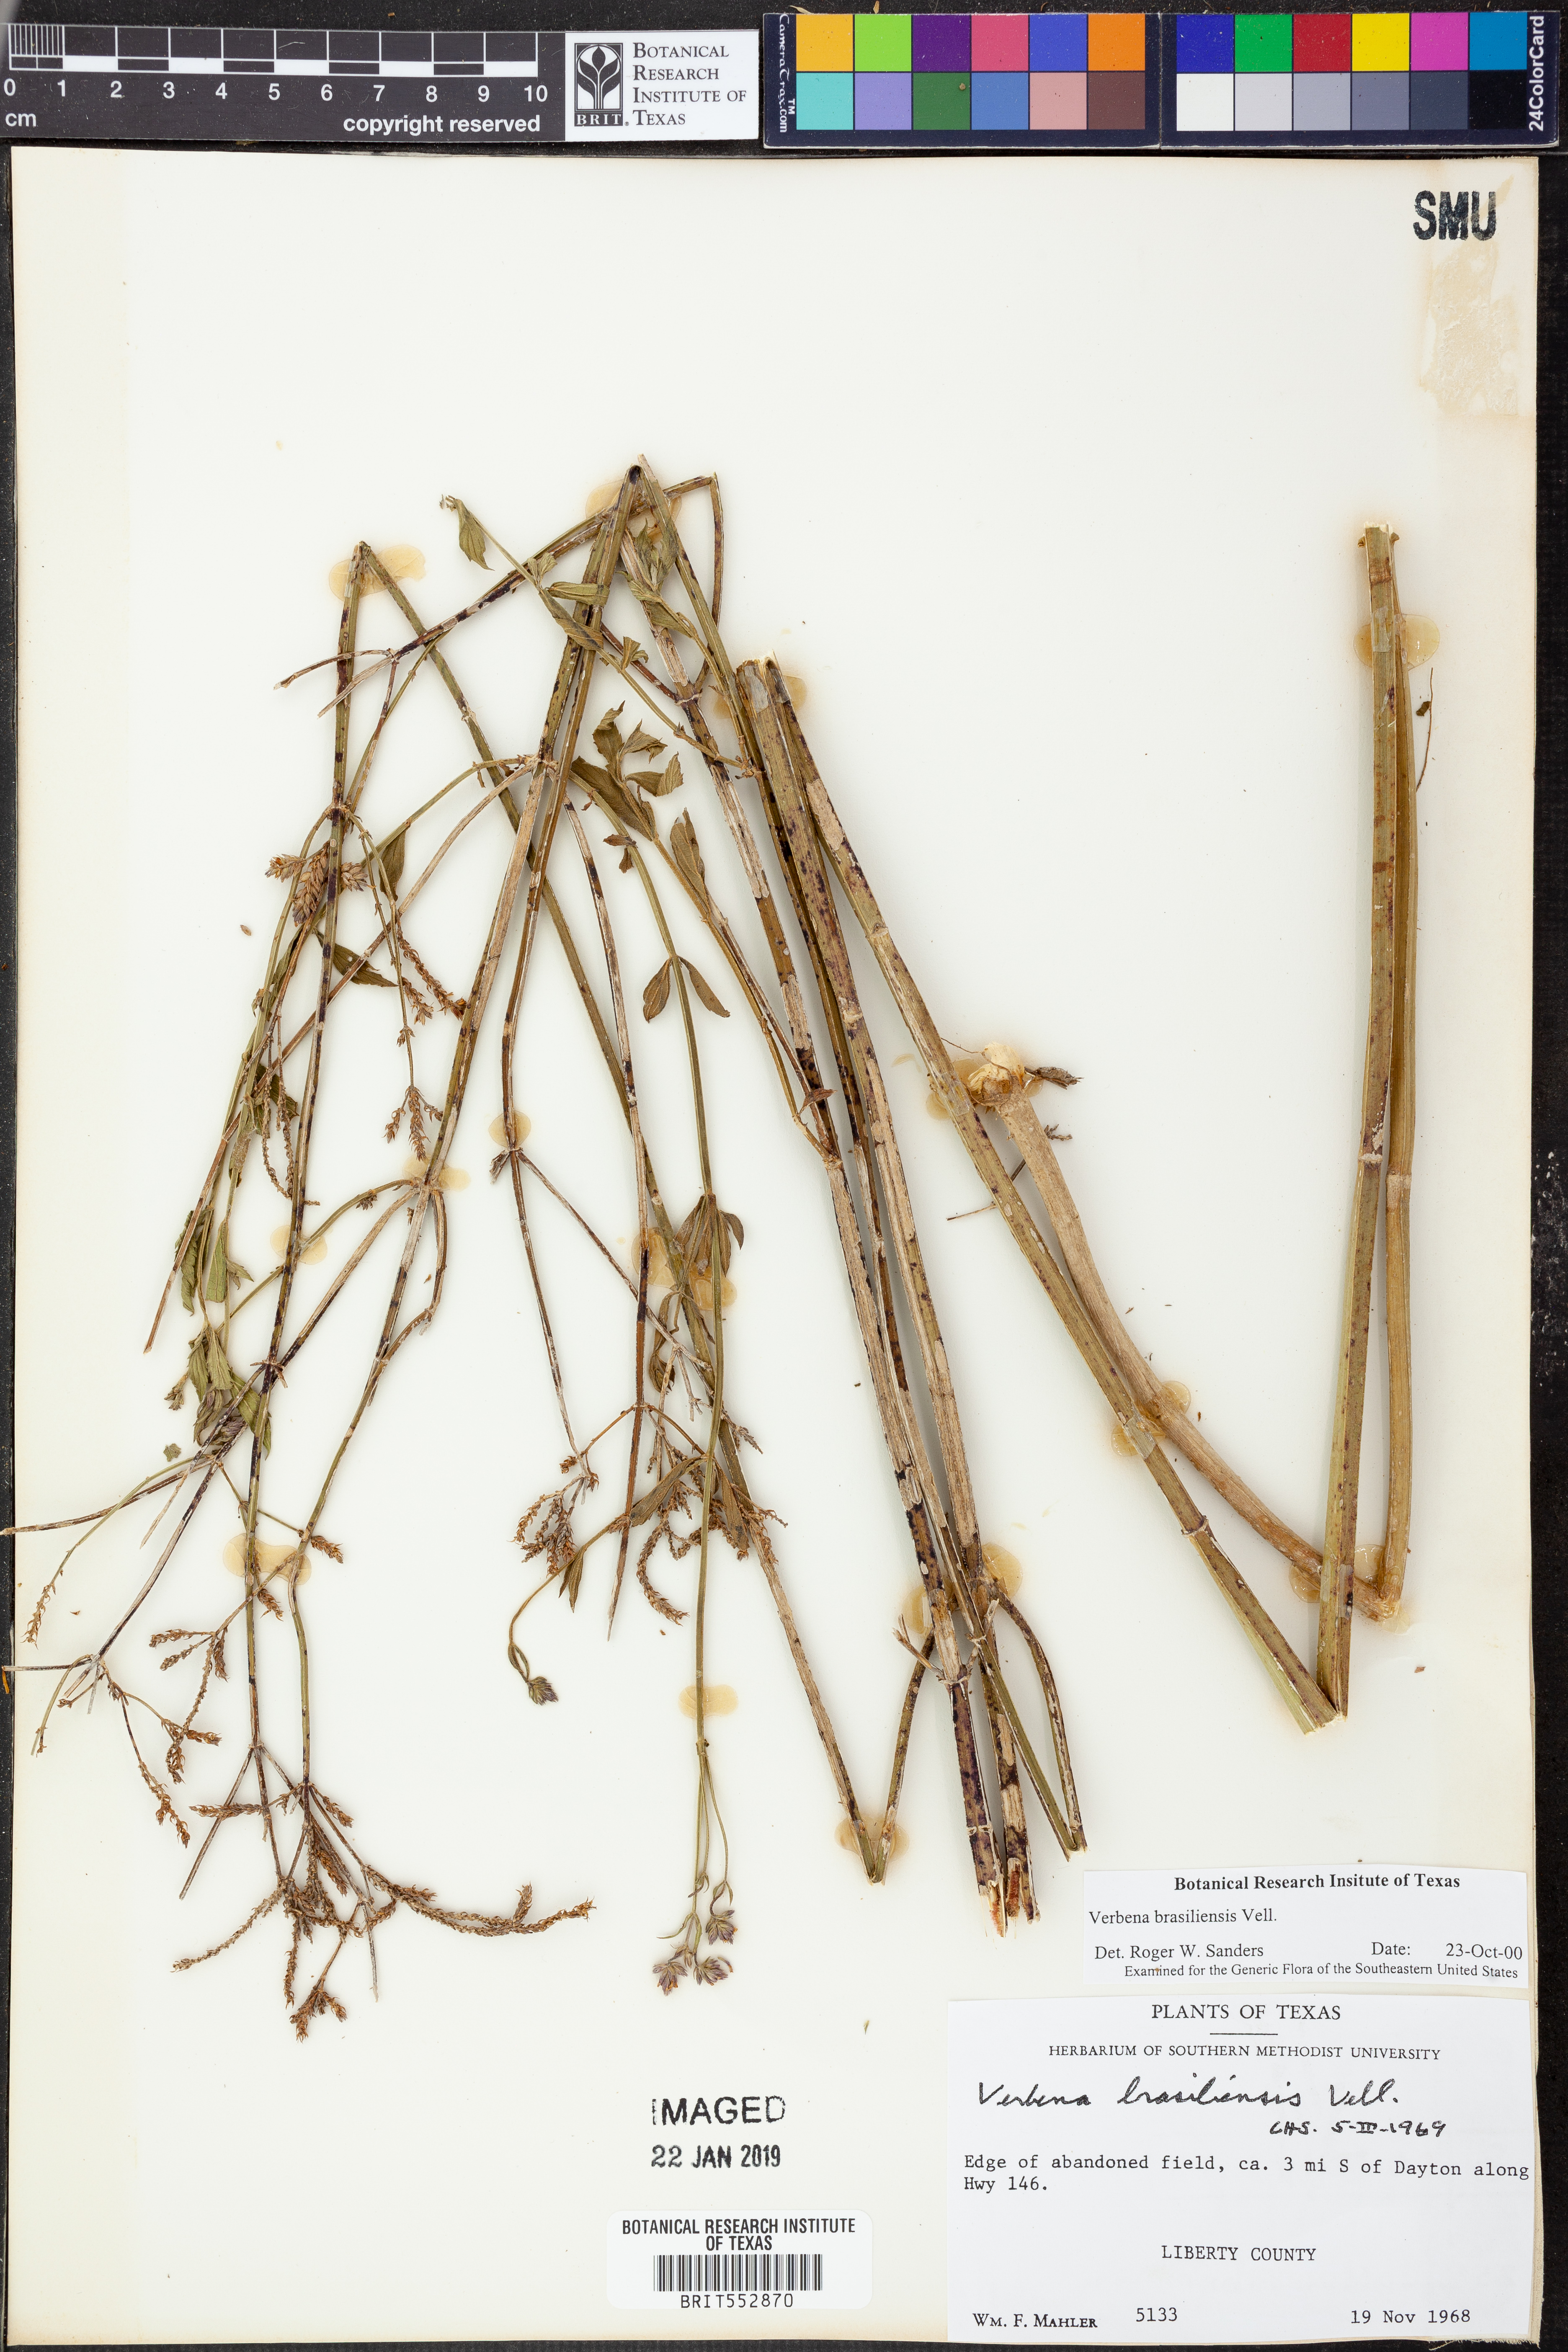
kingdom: Plantae
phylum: Tracheophyta
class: Magnoliopsida
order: Lamiales
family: Verbenaceae
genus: Verbena
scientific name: Verbena brasiliensis
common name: Brazilian vervain
